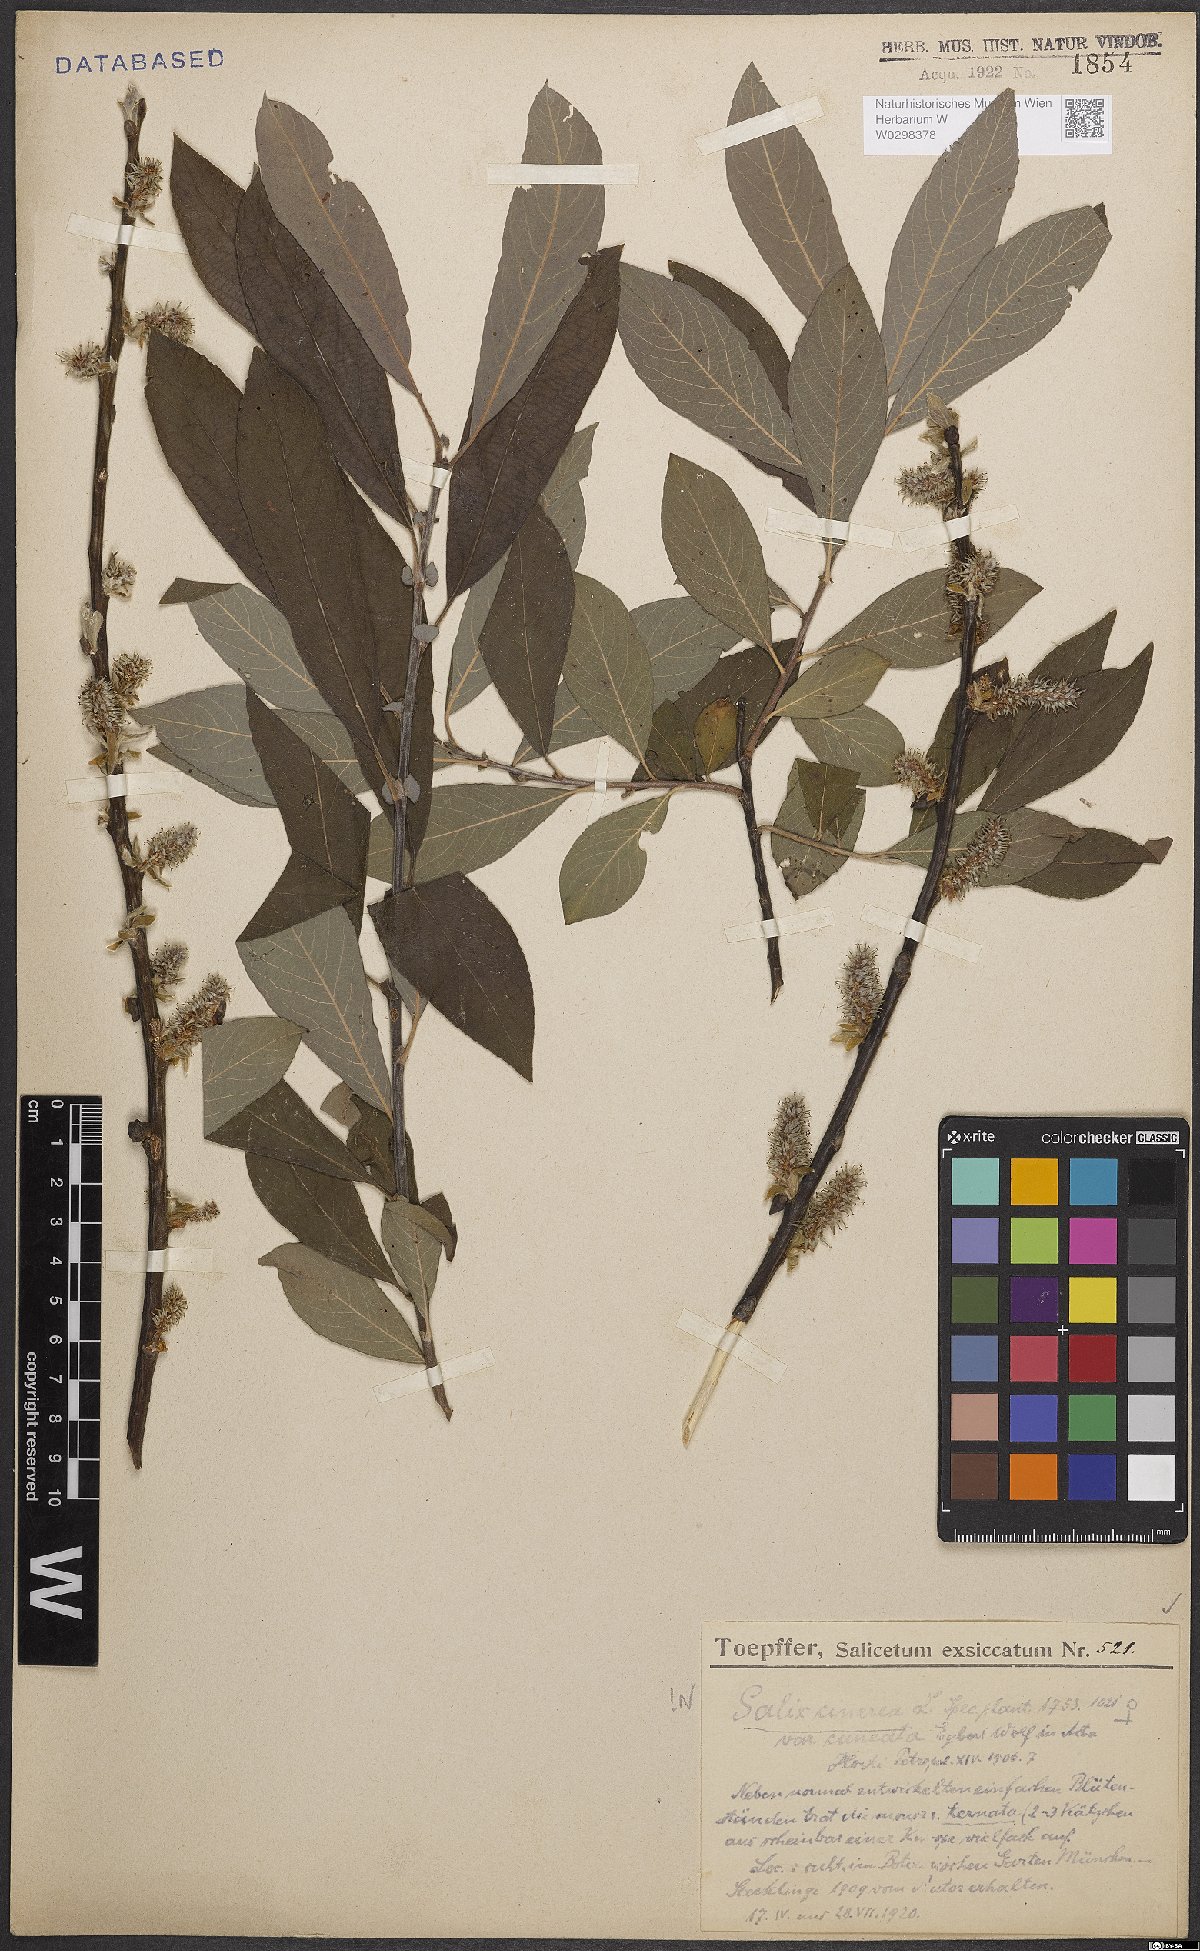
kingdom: Plantae
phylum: Tracheophyta
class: Magnoliopsida
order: Malpighiales
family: Salicaceae
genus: Salix
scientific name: Salix cinerea
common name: Common sallow
